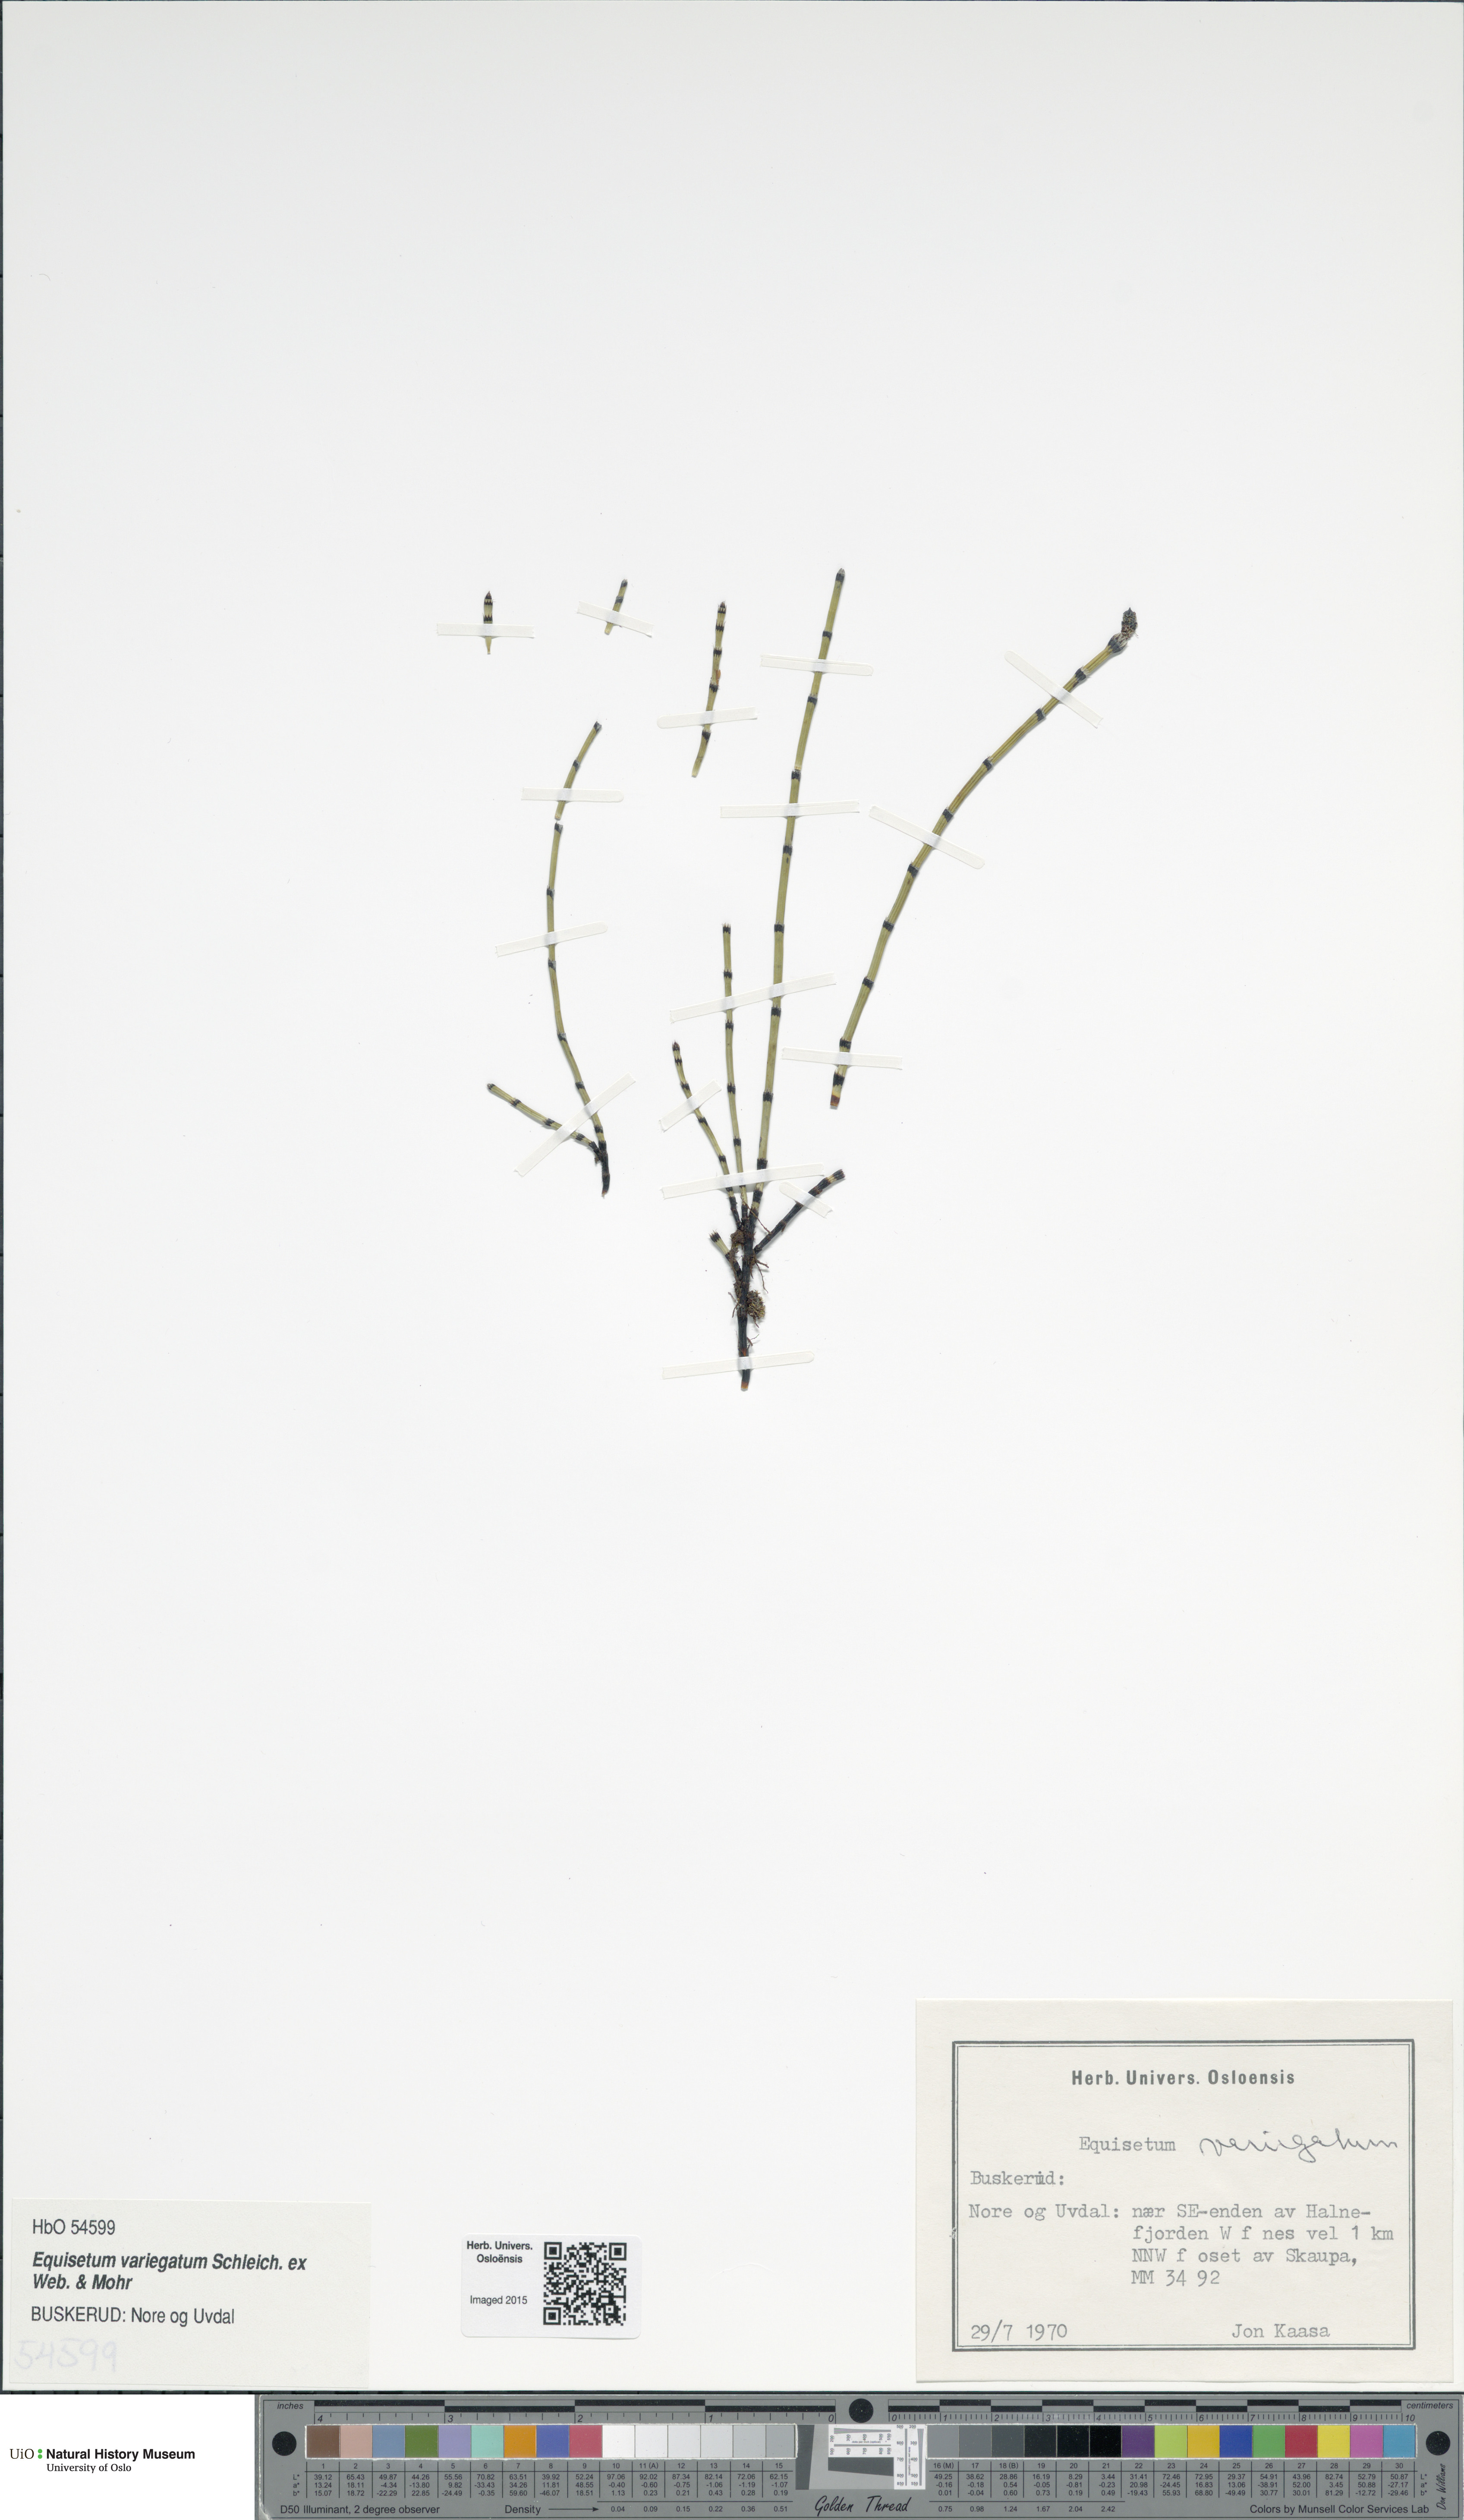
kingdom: Plantae
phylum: Tracheophyta
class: Polypodiopsida
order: Equisetales
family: Equisetaceae
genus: Equisetum
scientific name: Equisetum variegatum
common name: Variegated horsetail
